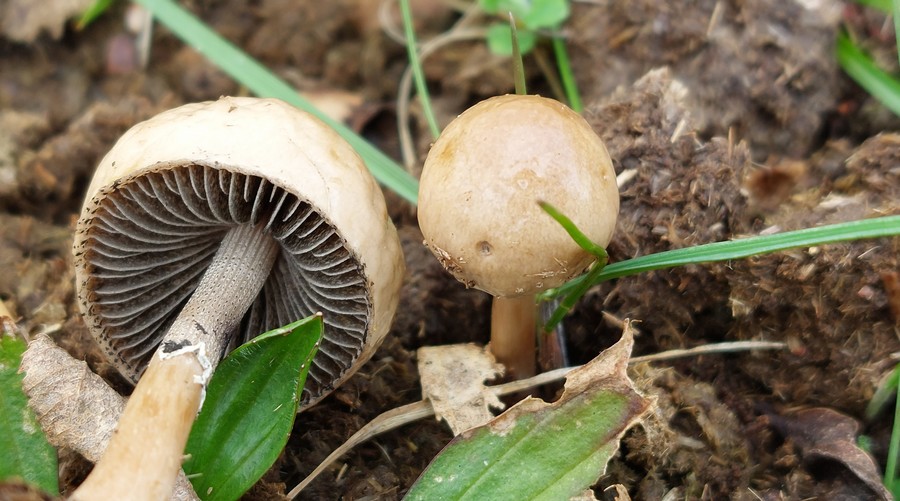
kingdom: Fungi
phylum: Basidiomycota
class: Agaricomycetes
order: Agaricales
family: Bolbitiaceae
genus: Panaeolus
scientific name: Panaeolus semiovatus
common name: ring-glanshat
